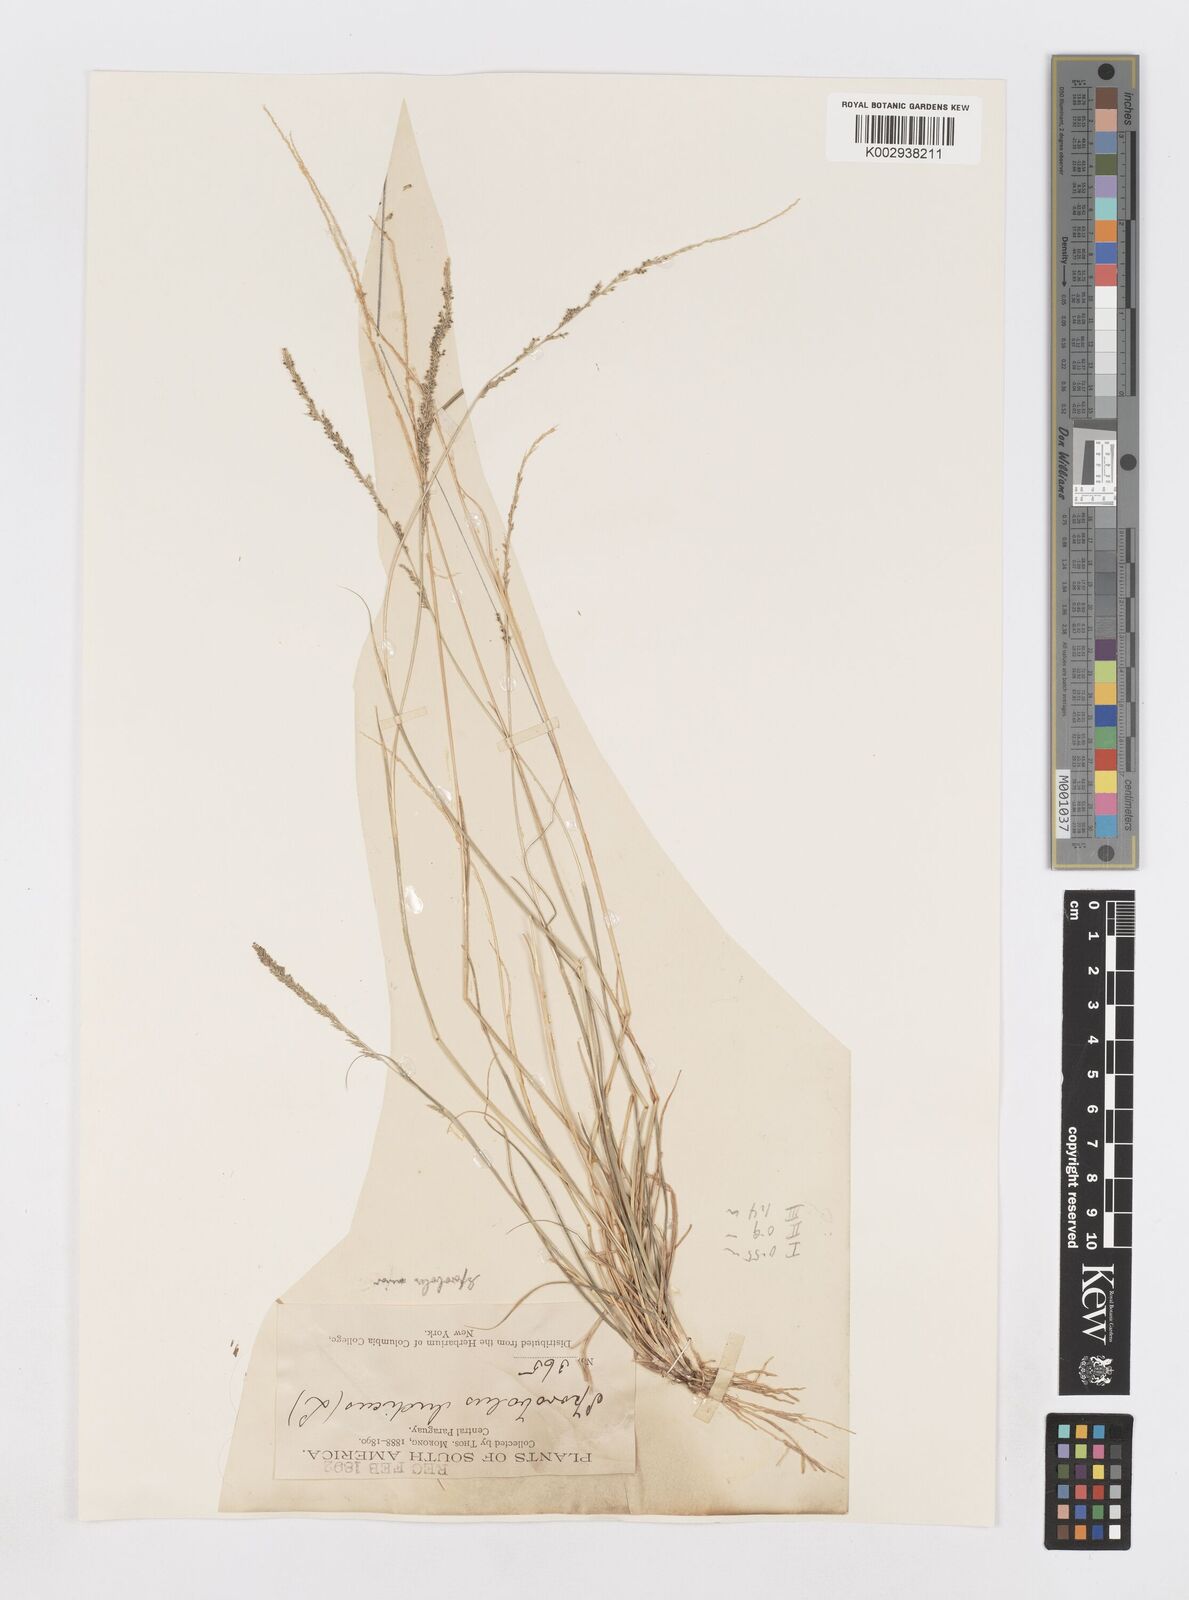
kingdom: Plantae
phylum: Tracheophyta
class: Liliopsida
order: Poales
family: Poaceae
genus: Sporobolus
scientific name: Sporobolus indicus
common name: Smut grass
